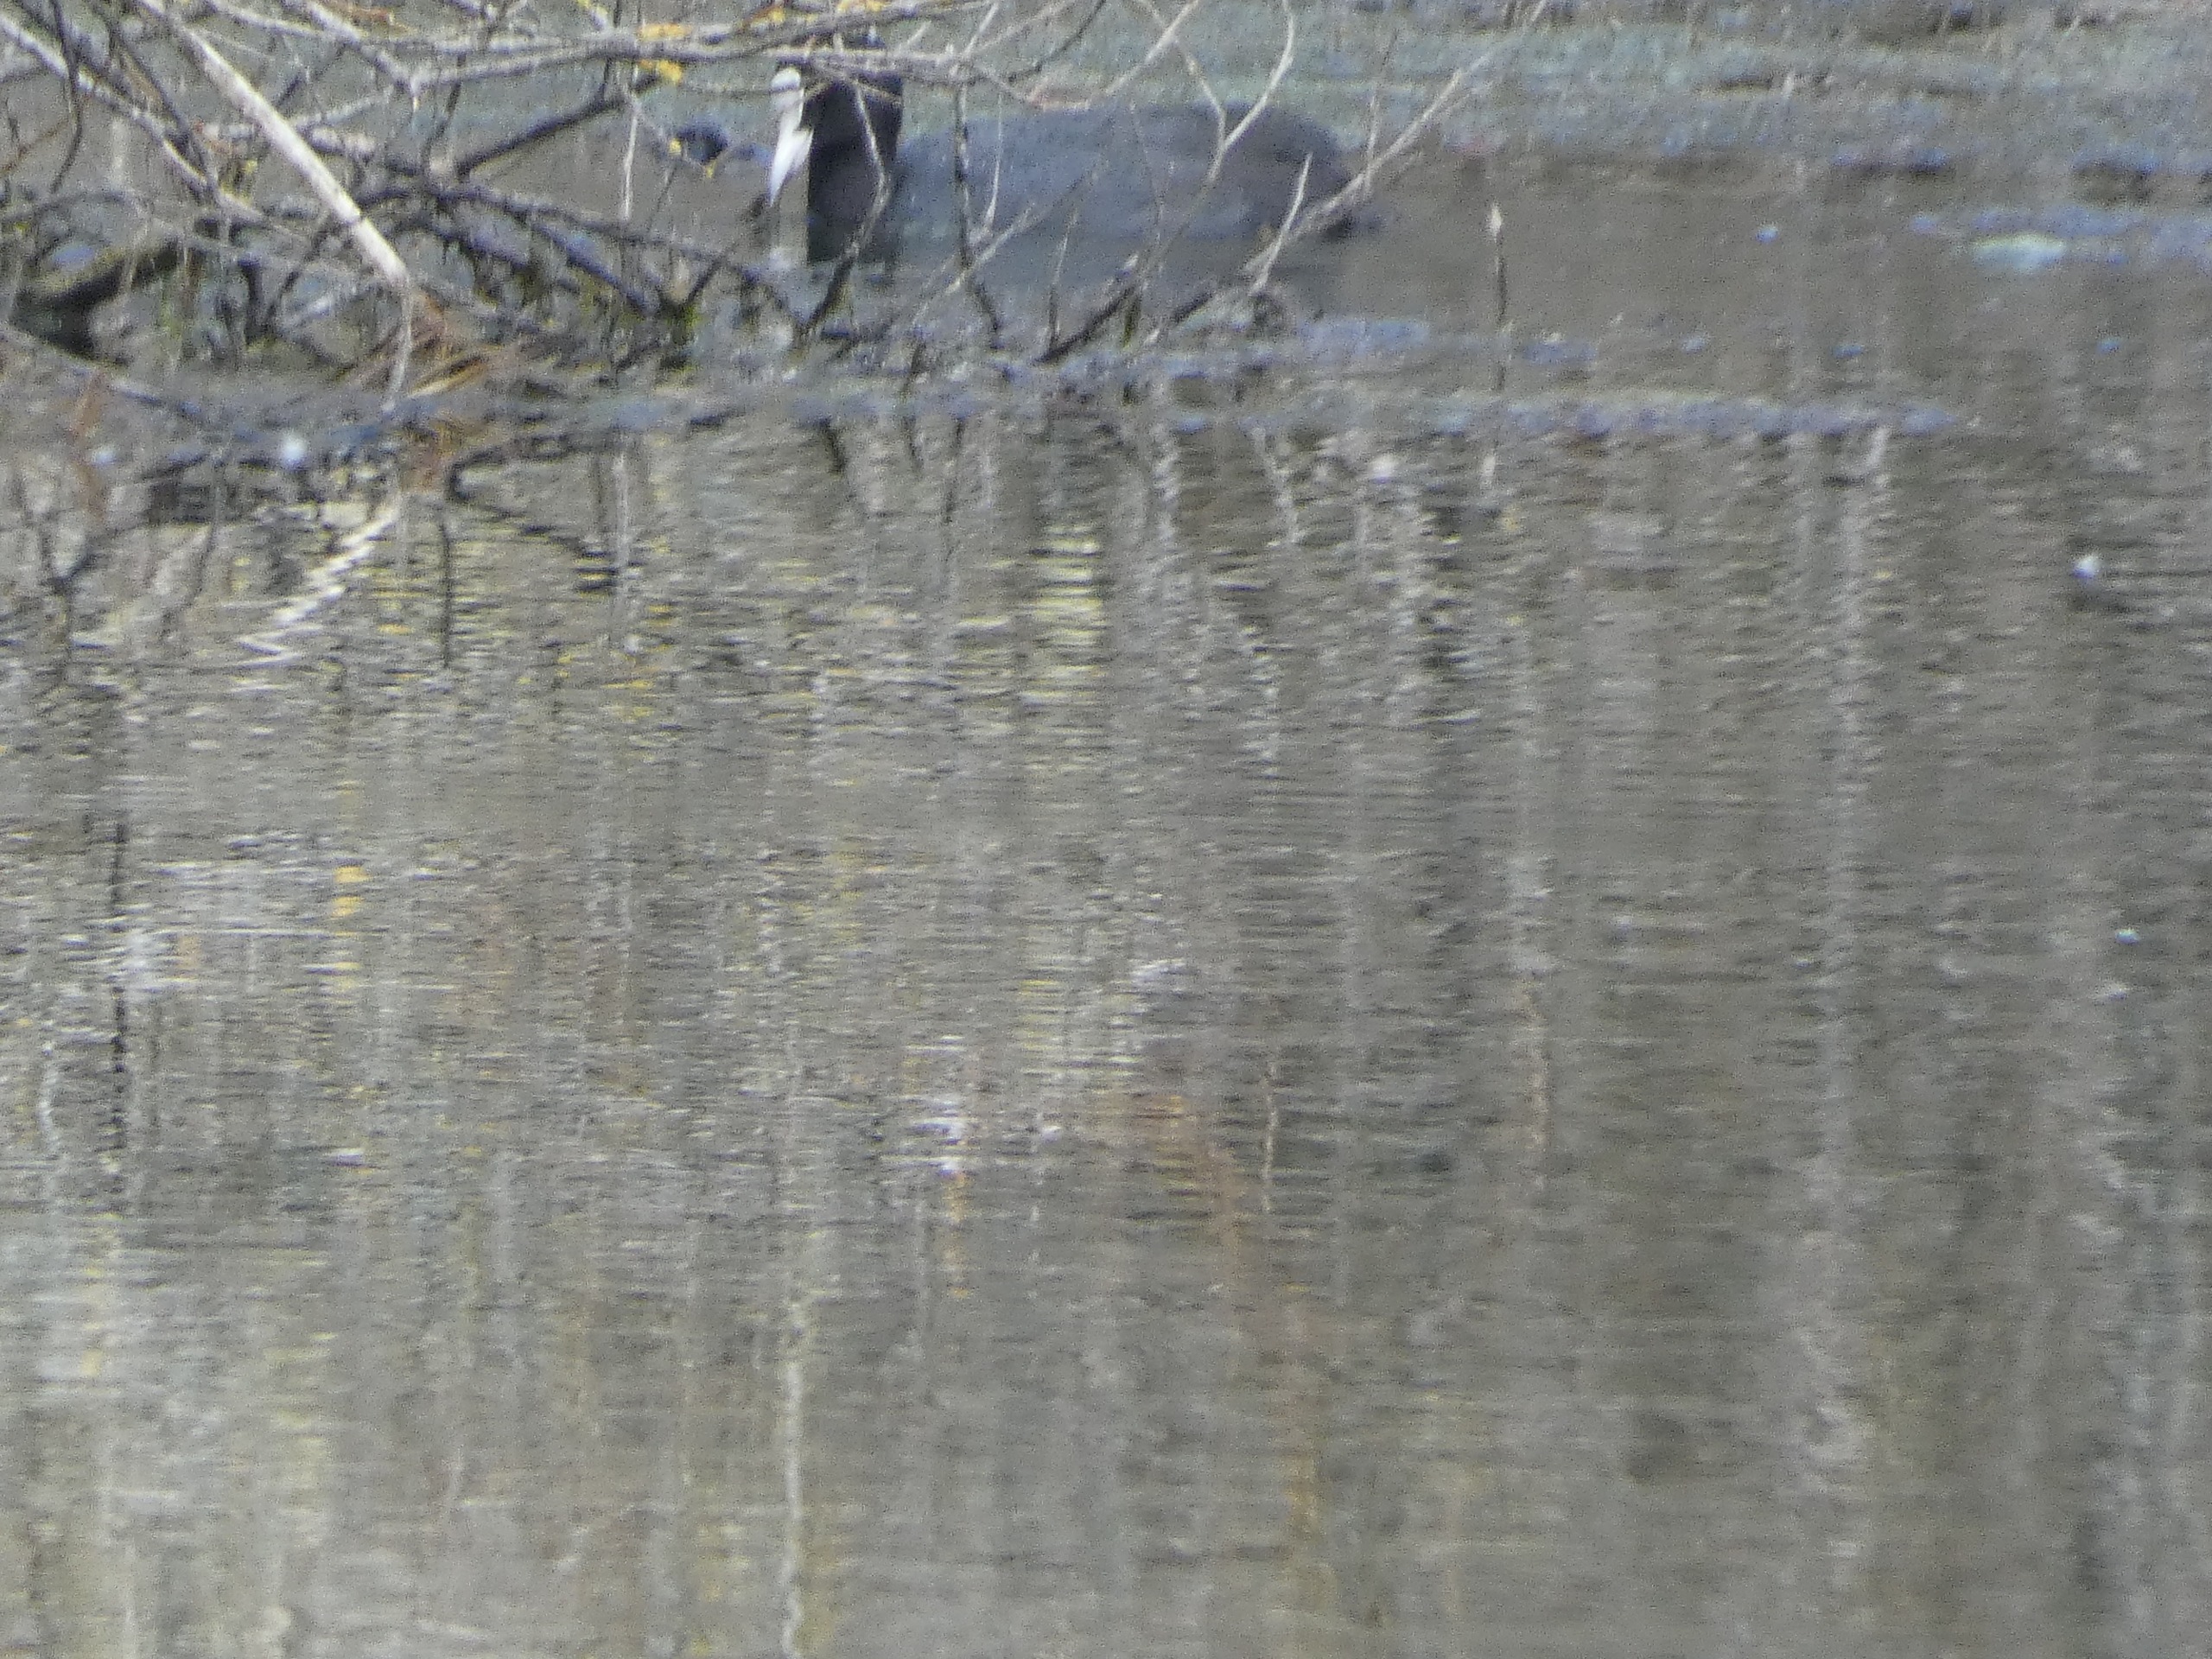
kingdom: Animalia
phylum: Chordata
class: Aves
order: Gruiformes
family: Rallidae
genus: Fulica
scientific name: Fulica atra
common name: Blishøne
